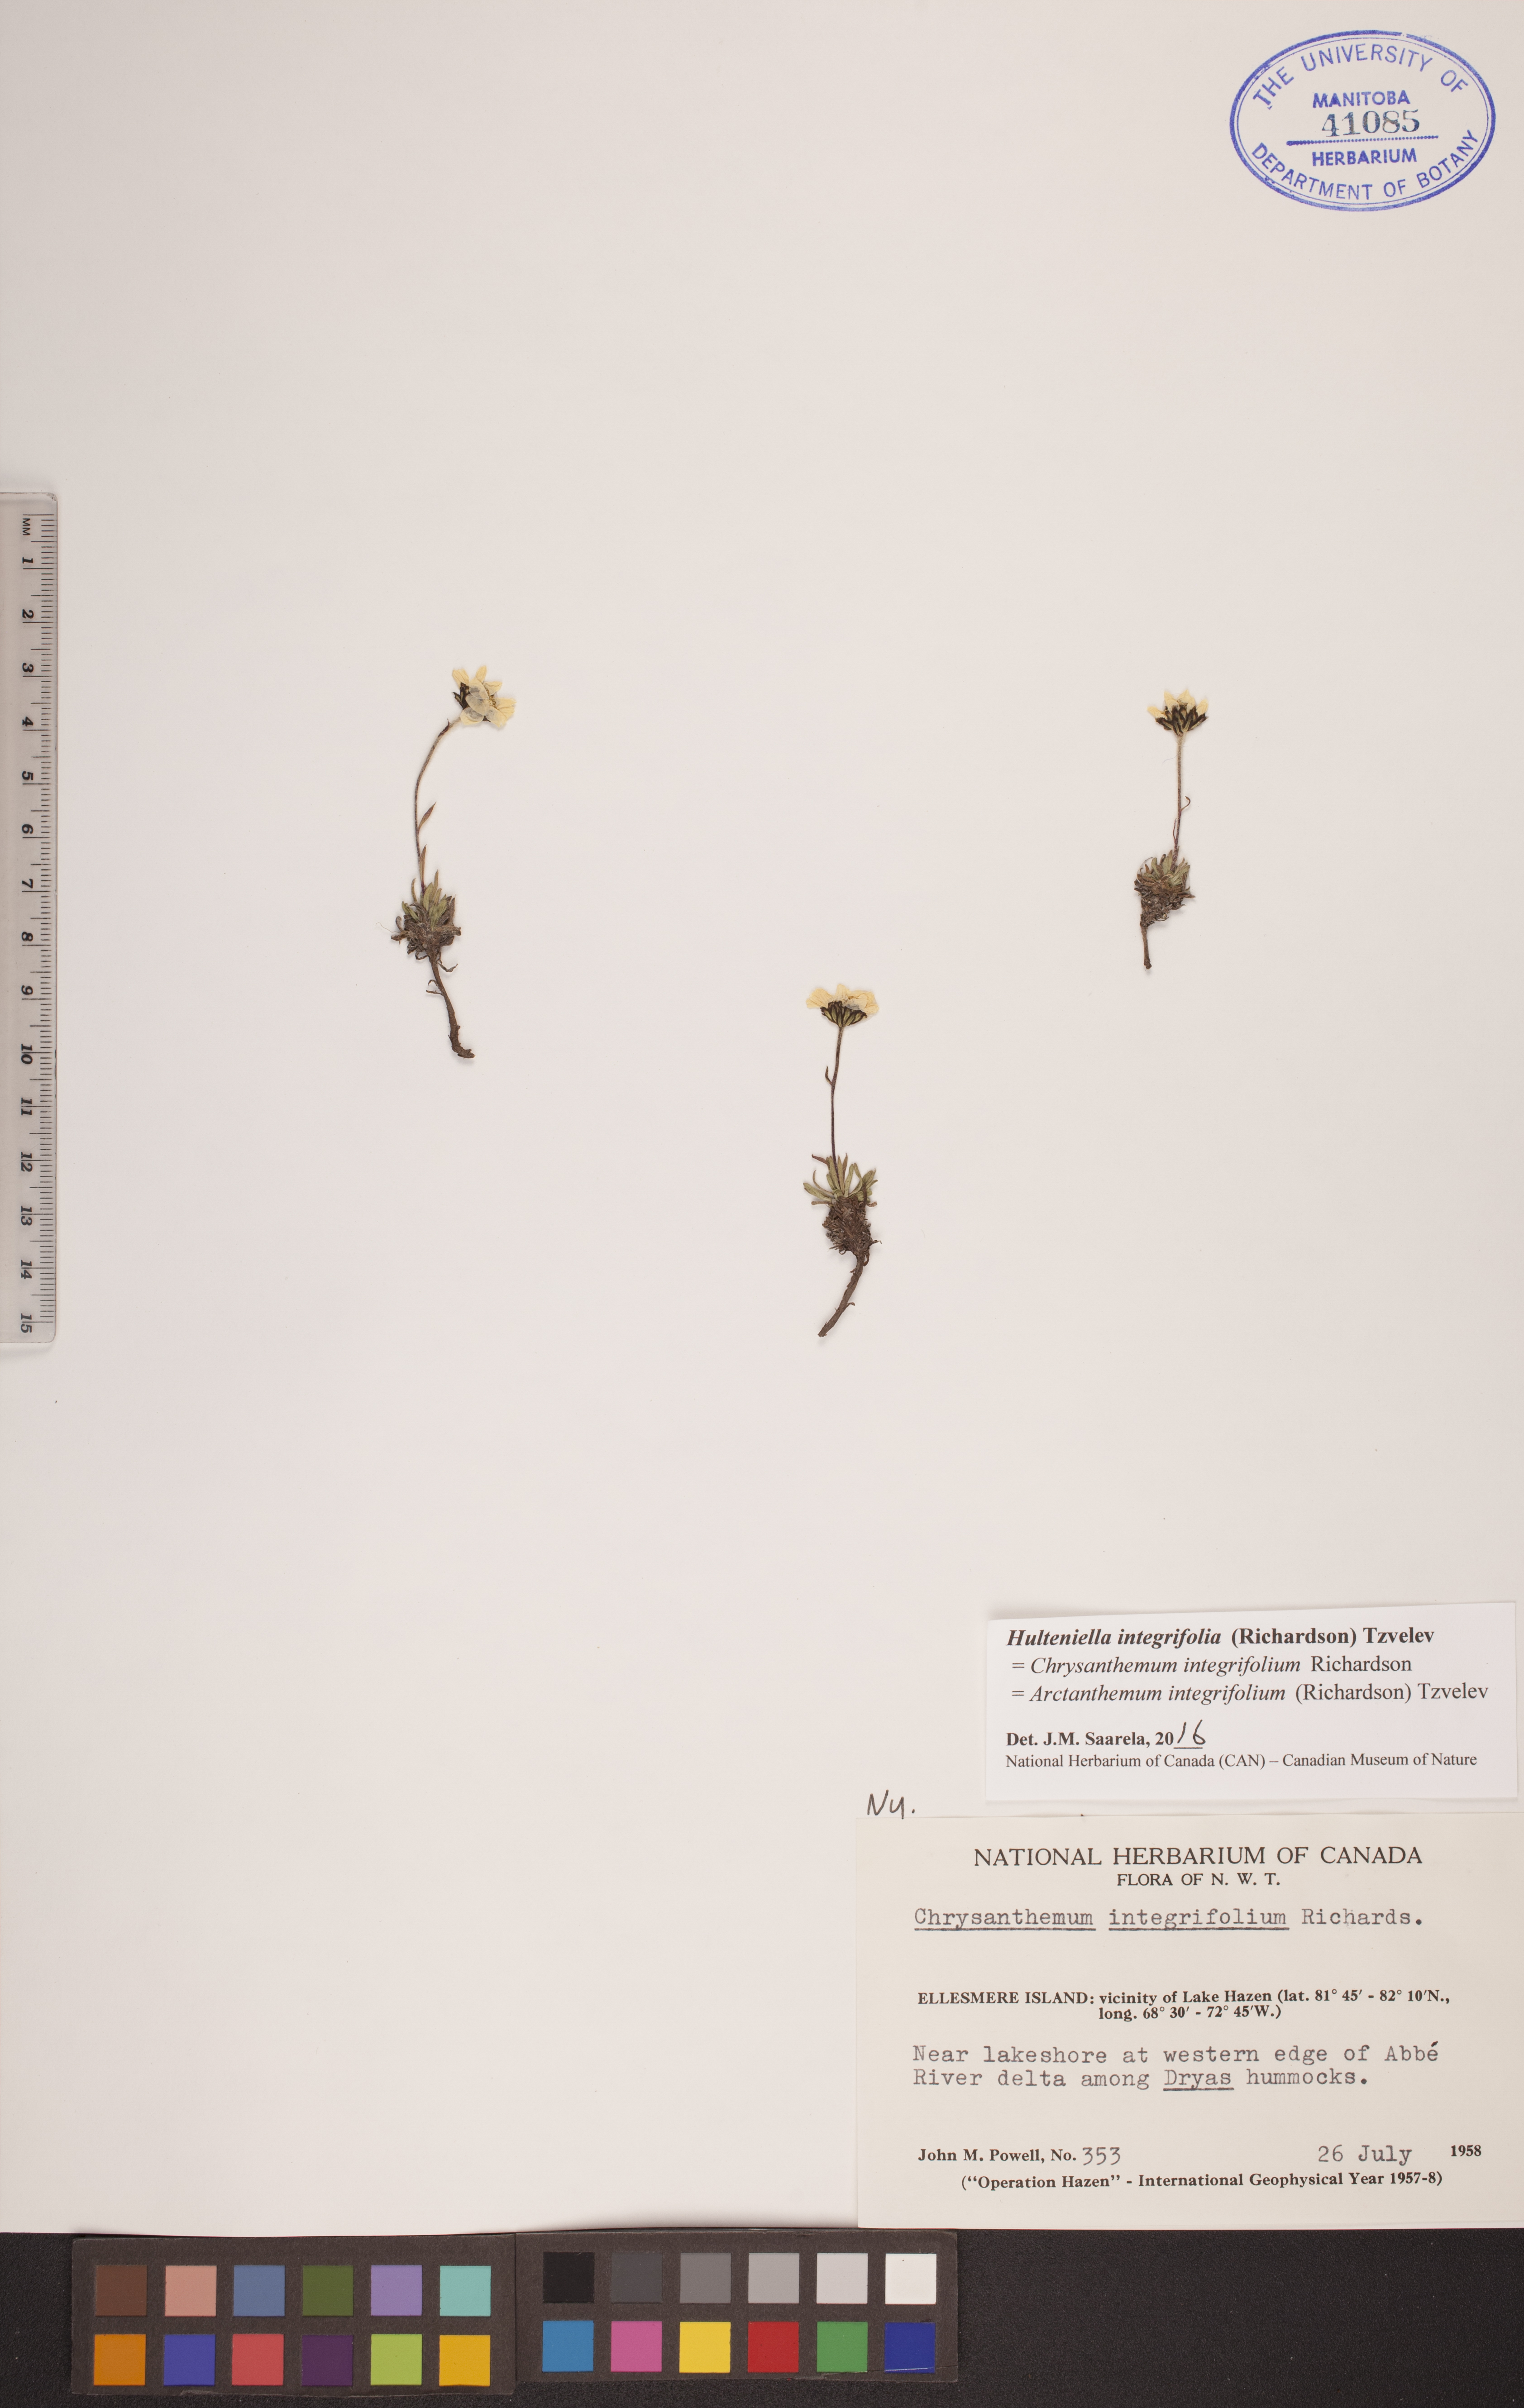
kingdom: Plantae
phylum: Tracheophyta
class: Magnoliopsida
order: Asterales
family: Asteraceae
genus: Arctanthemum
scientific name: Arctanthemum integrifolium
